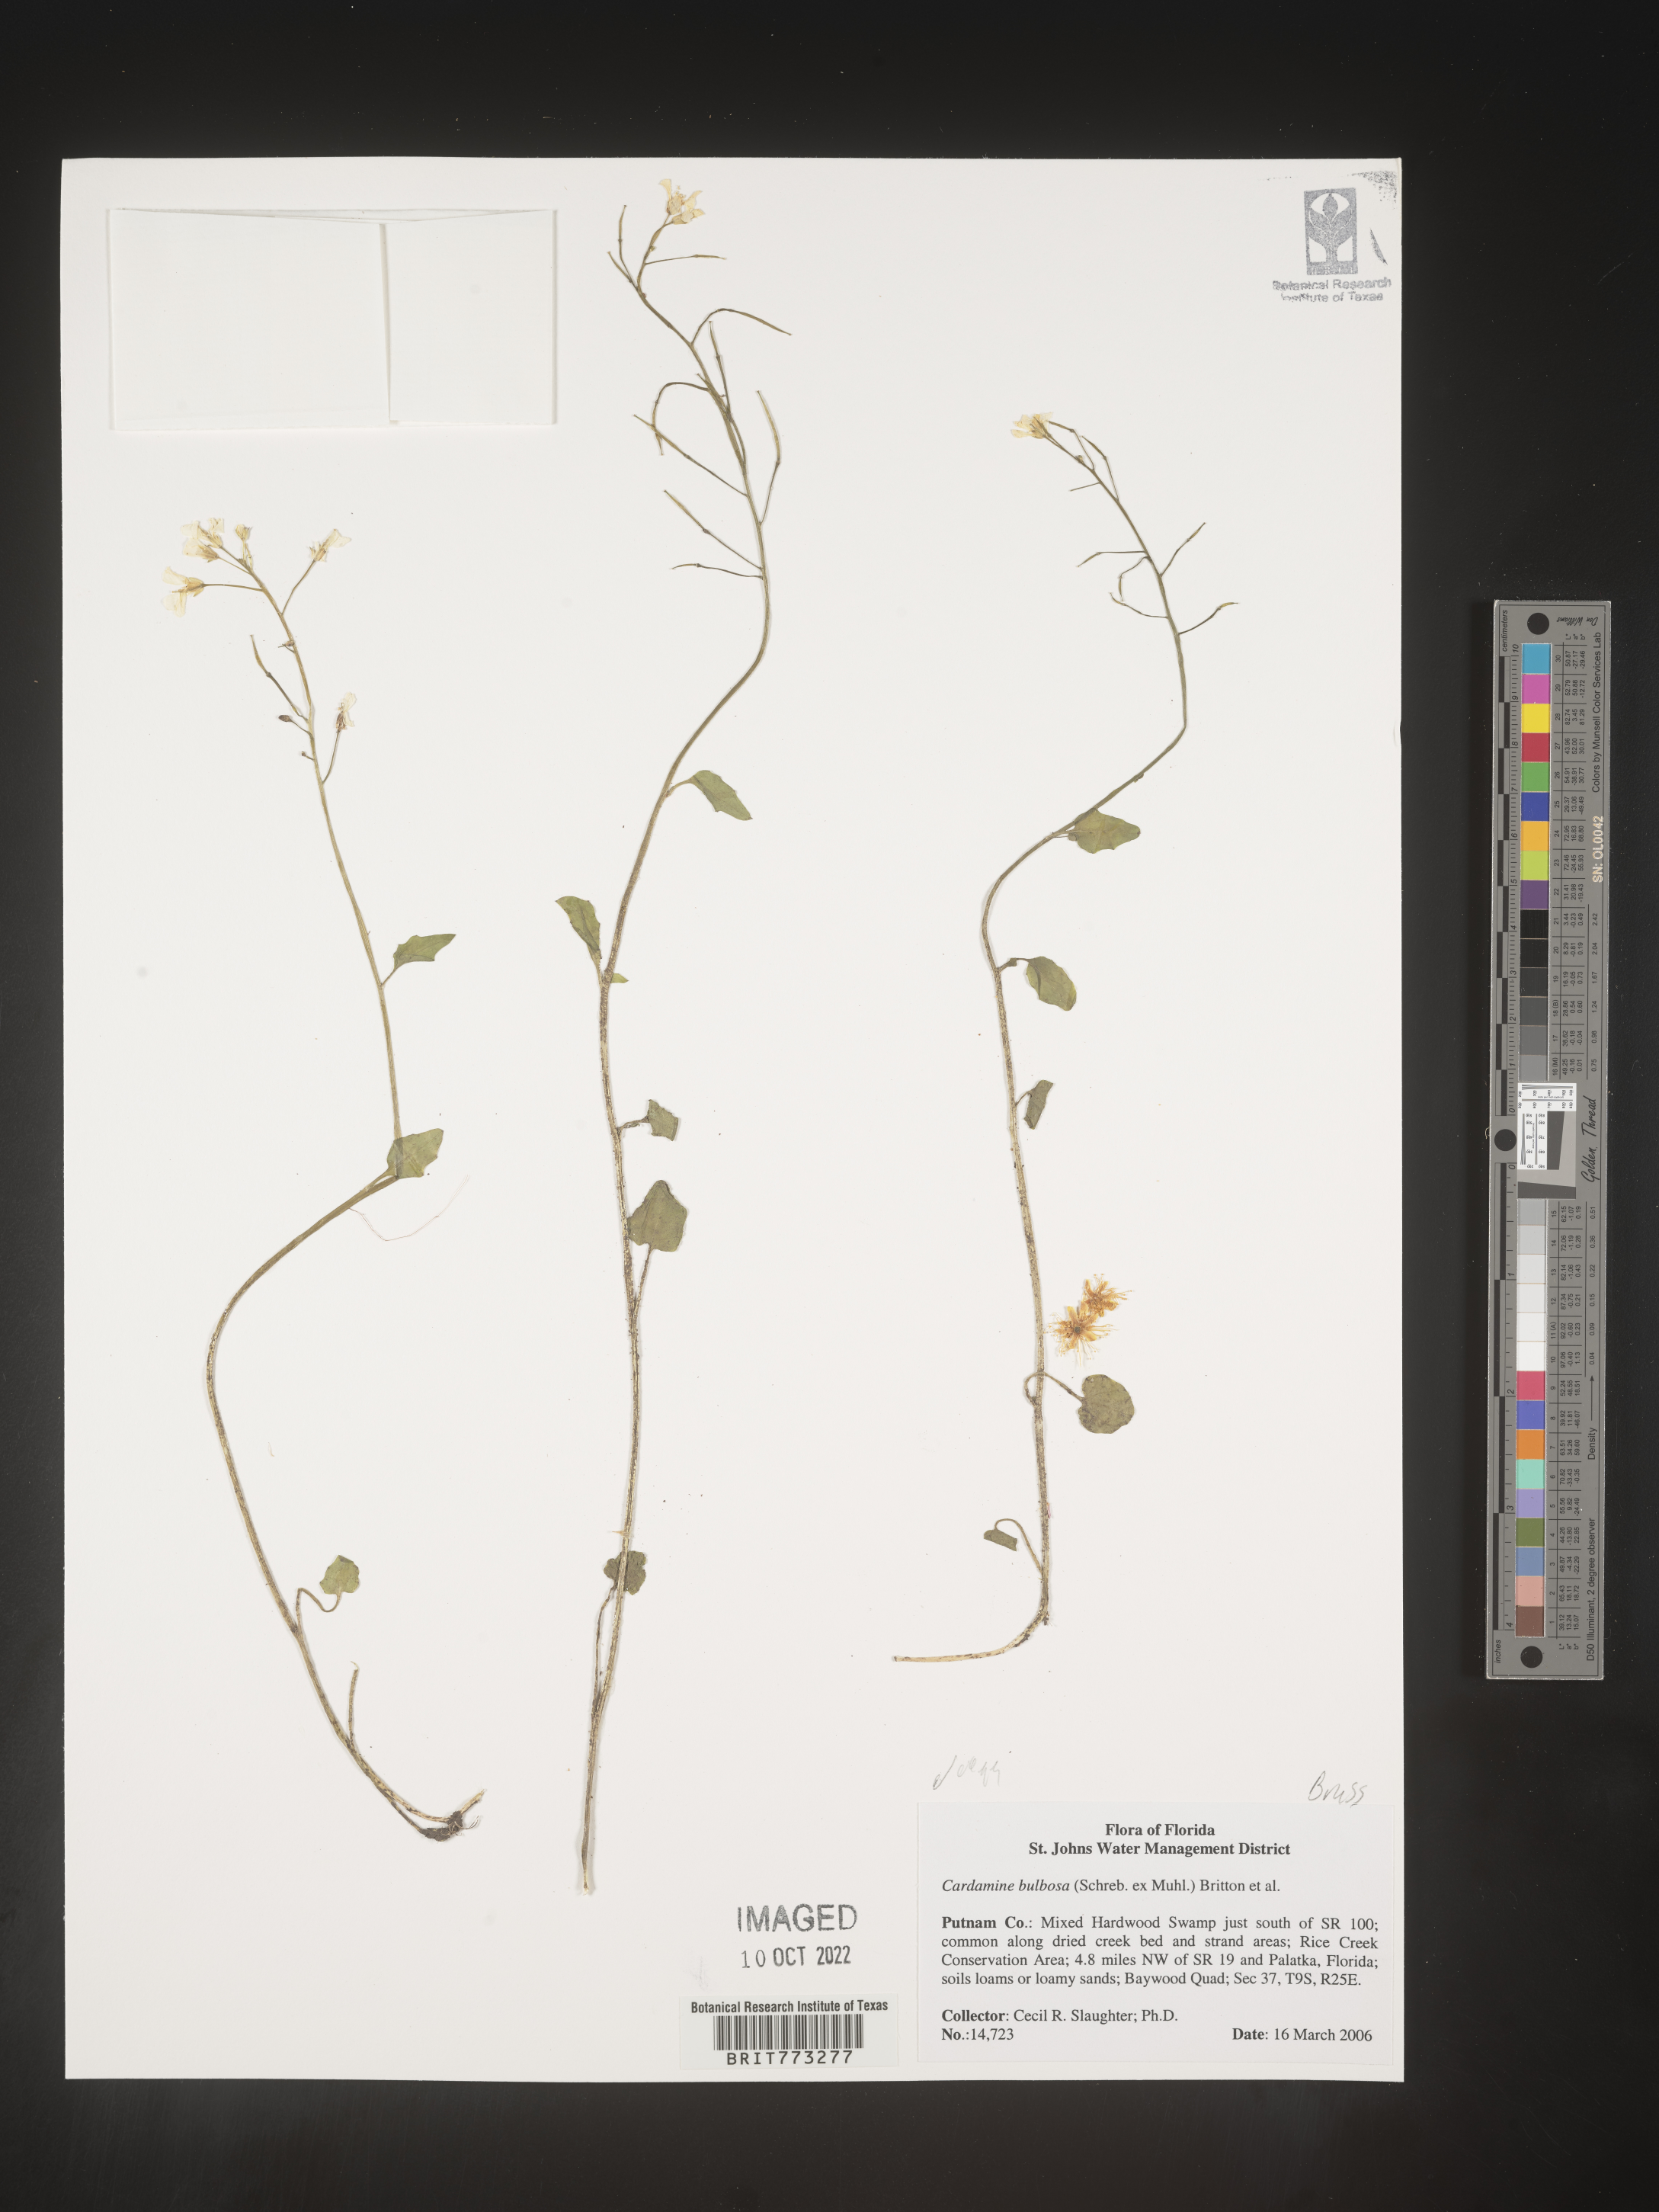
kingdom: Plantae
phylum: Tracheophyta
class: Magnoliopsida
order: Brassicales
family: Brassicaceae
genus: Cardamine
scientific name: Cardamine bulbosa
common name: Spring cress
